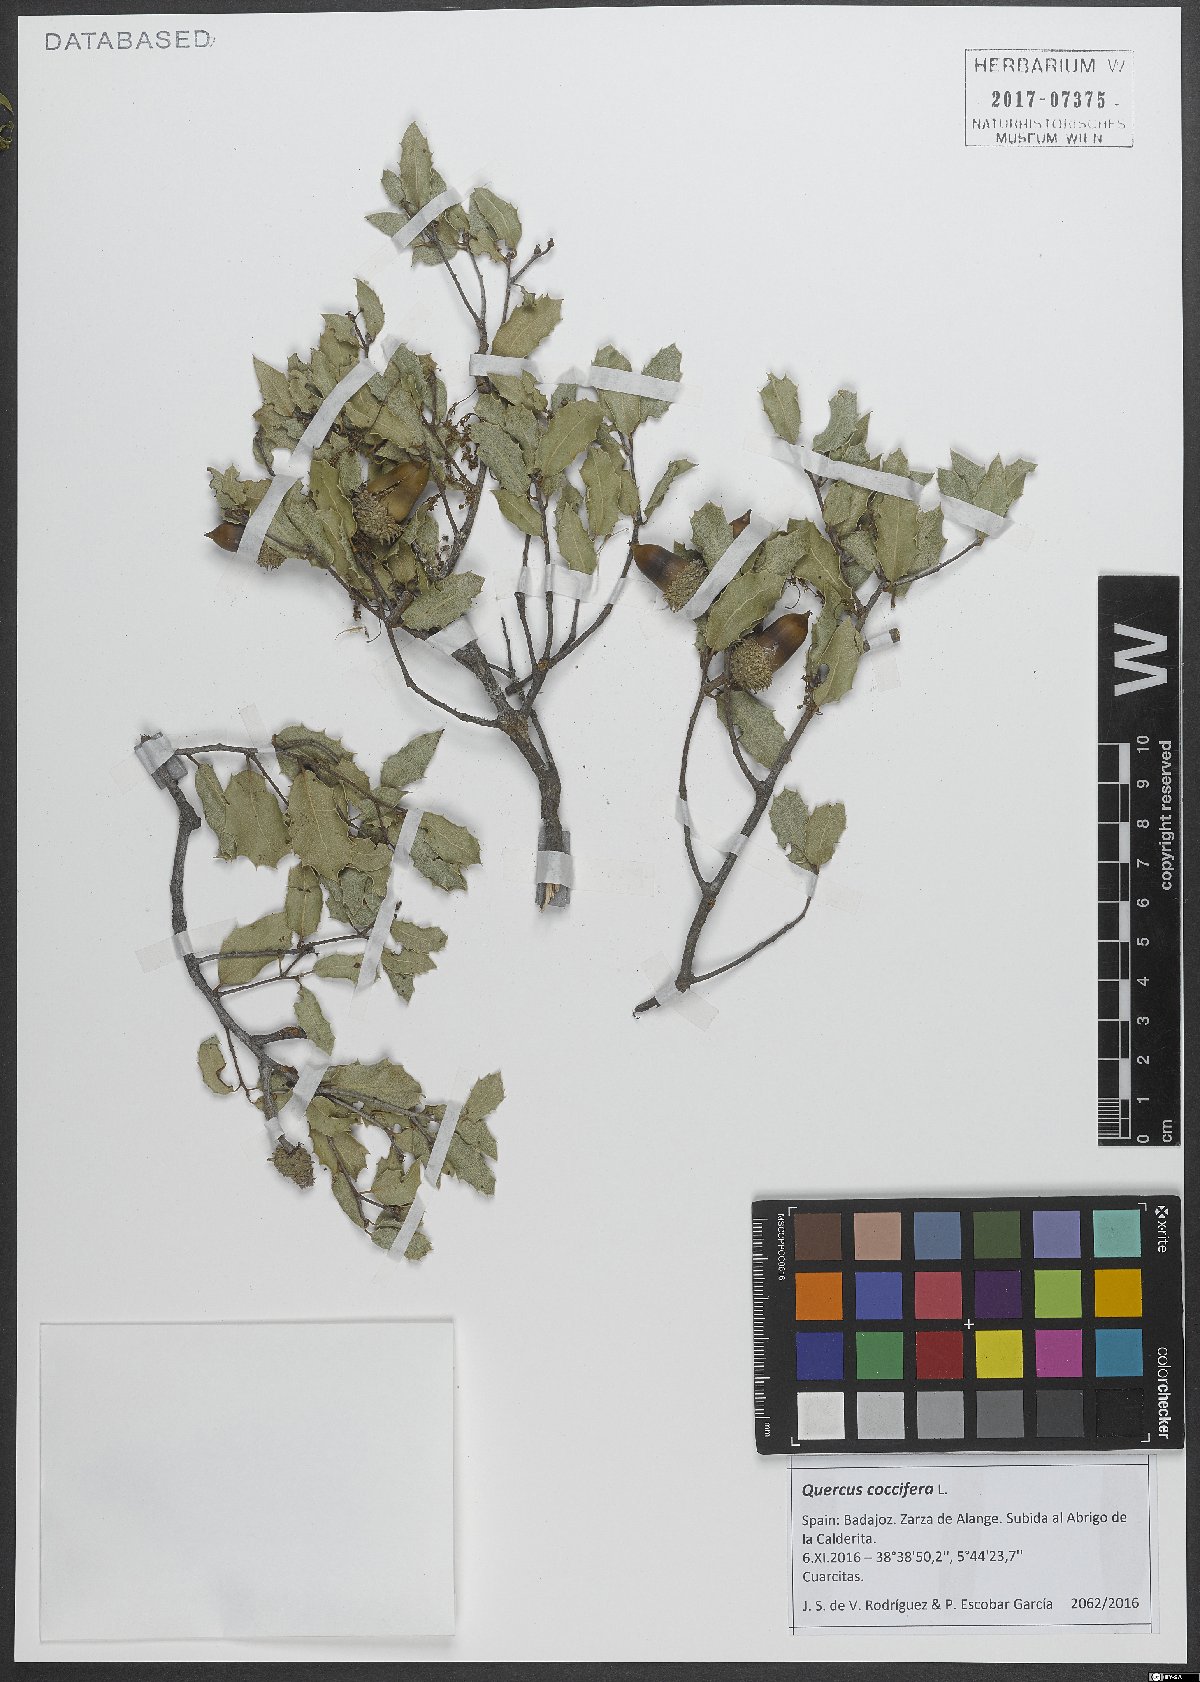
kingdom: Plantae
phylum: Tracheophyta
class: Magnoliopsida
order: Fagales
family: Fagaceae
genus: Quercus
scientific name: Quercus coccifera
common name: Kermes oak
